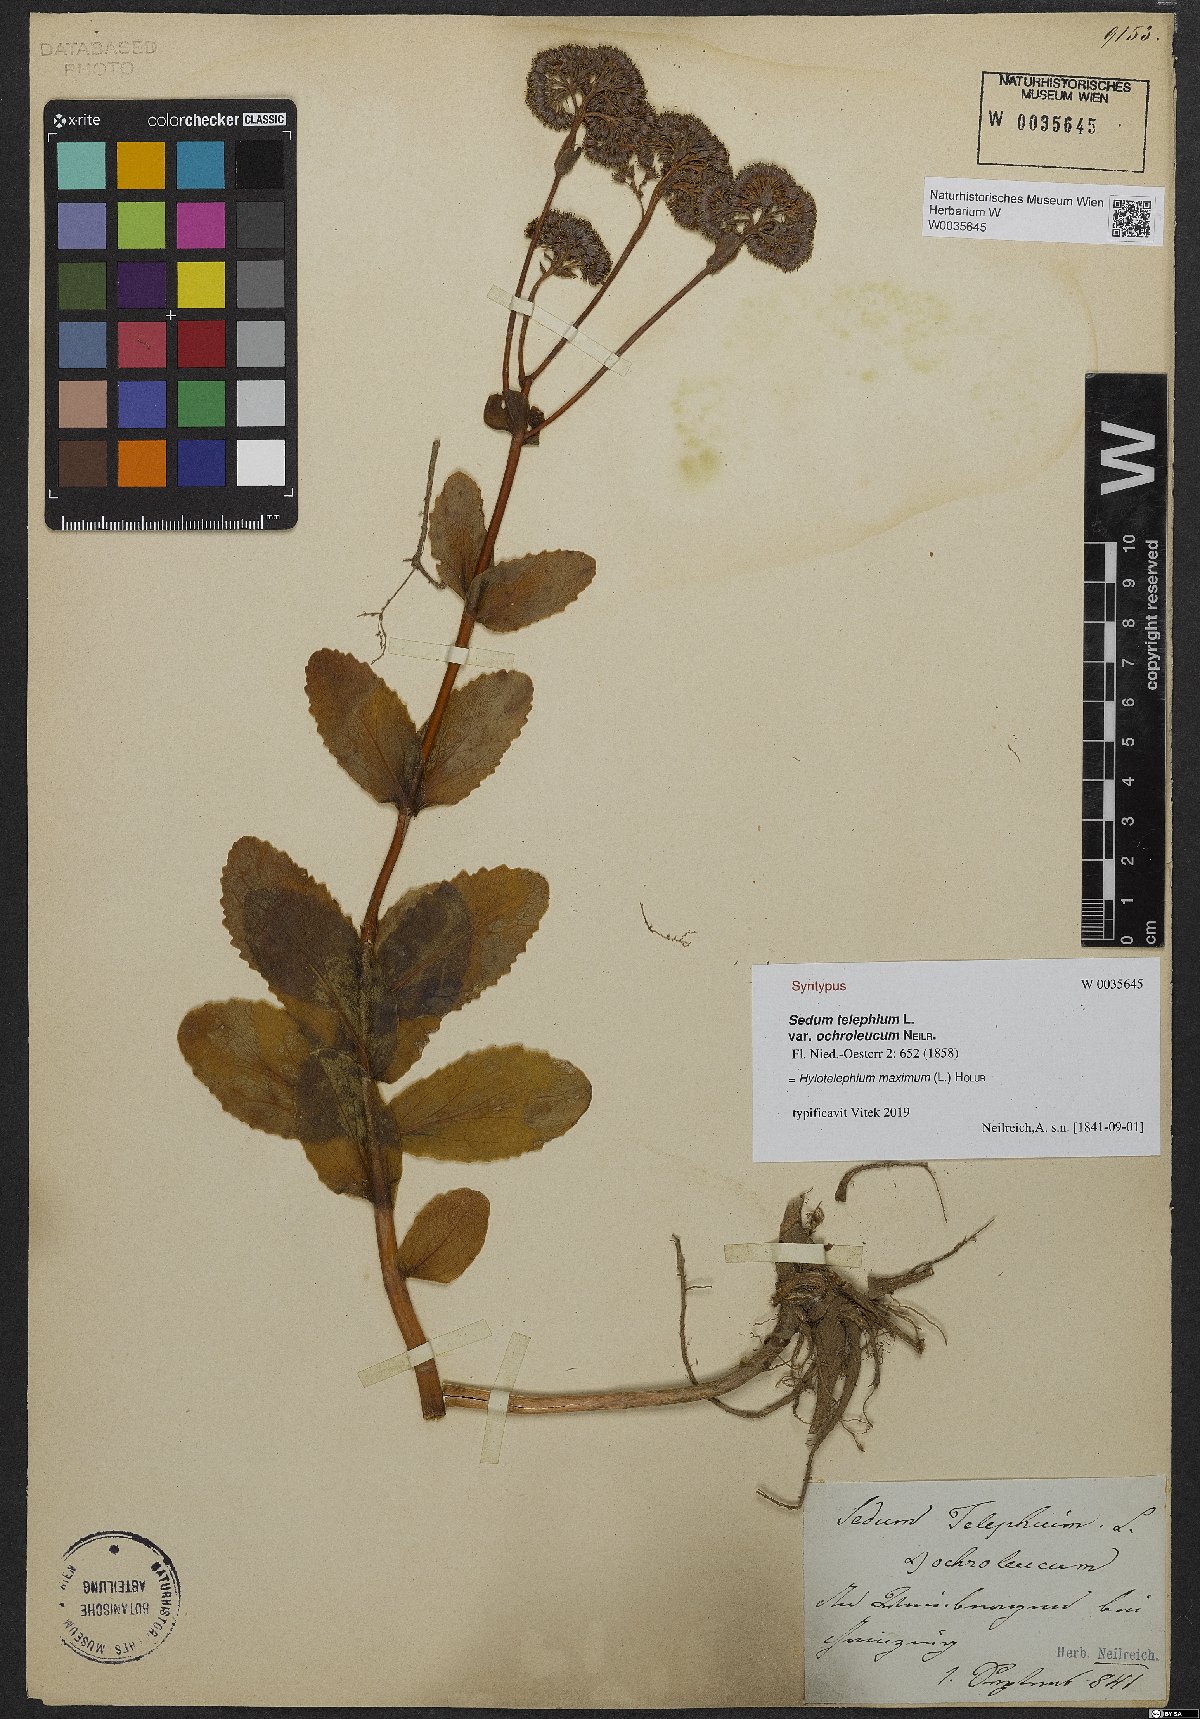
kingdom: Plantae
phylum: Tracheophyta
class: Magnoliopsida
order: Saxifragales
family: Crassulaceae
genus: Hylotelephium
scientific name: Hylotelephium telephium
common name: Live-forever
